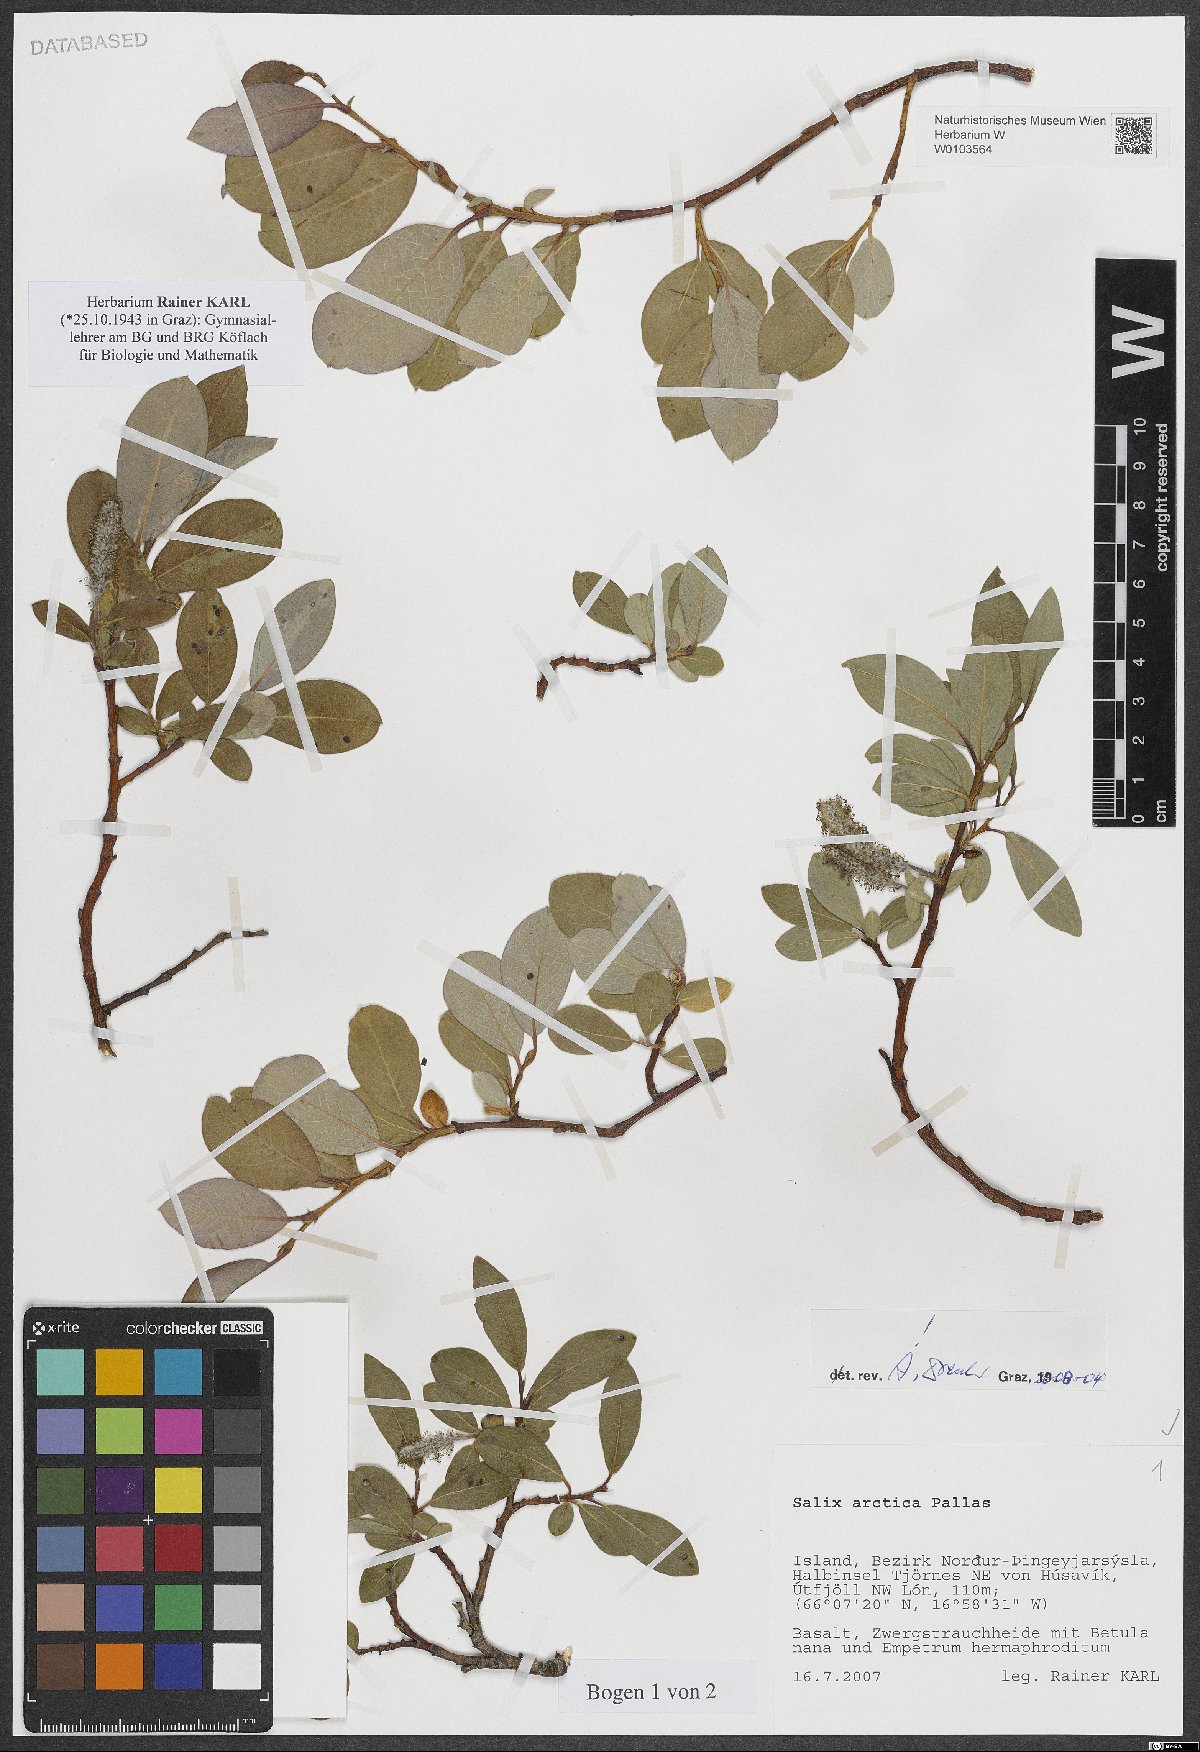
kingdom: Plantae
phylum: Tracheophyta
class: Magnoliopsida
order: Malpighiales
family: Salicaceae
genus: Salix
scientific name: Salix arctica
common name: Arctic willow
